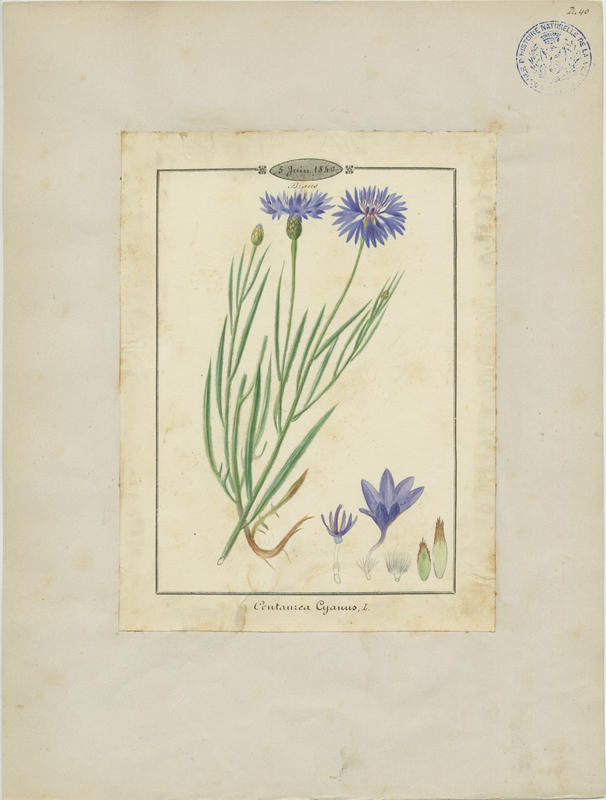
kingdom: Plantae
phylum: Tracheophyta
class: Magnoliopsida
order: Asterales
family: Asteraceae
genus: Centaurea
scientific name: Centaurea cyanus
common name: Cornflower
